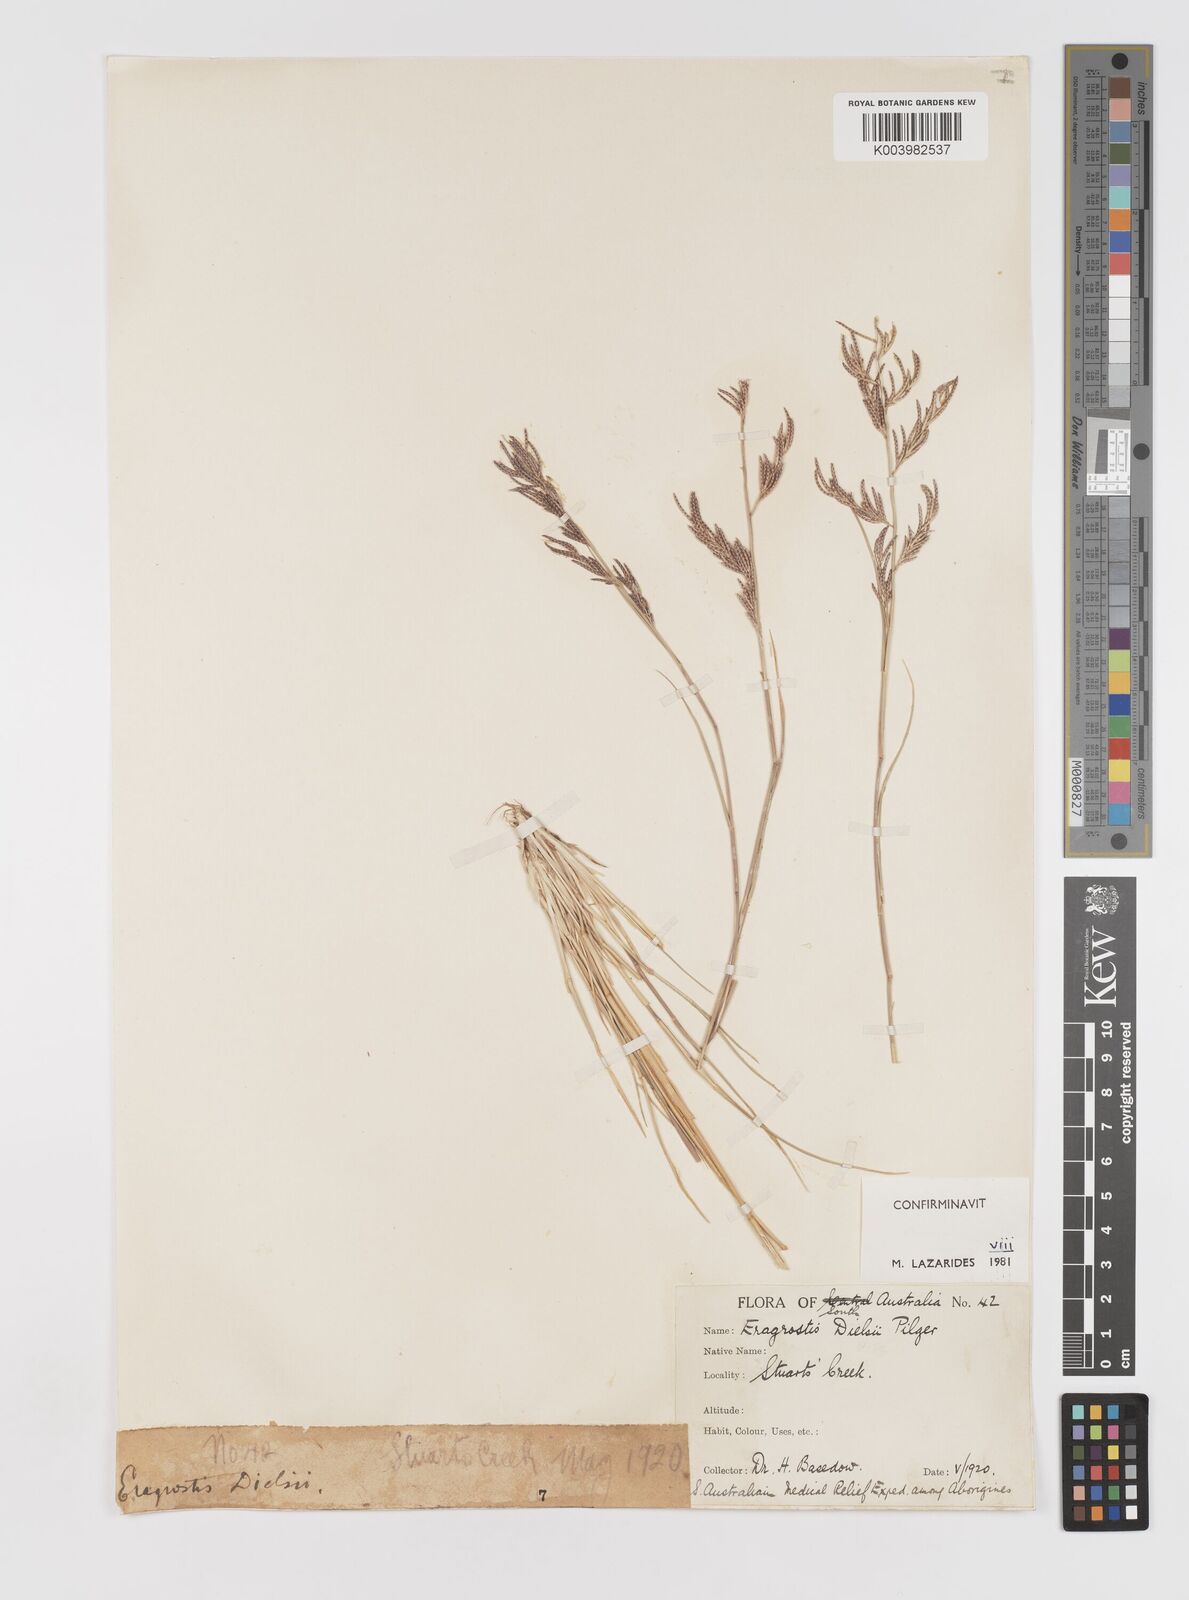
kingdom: Plantae
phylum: Tracheophyta
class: Liliopsida
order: Poales
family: Poaceae
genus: Eragrostis
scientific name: Eragrostis dielsii
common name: Lovegrass
